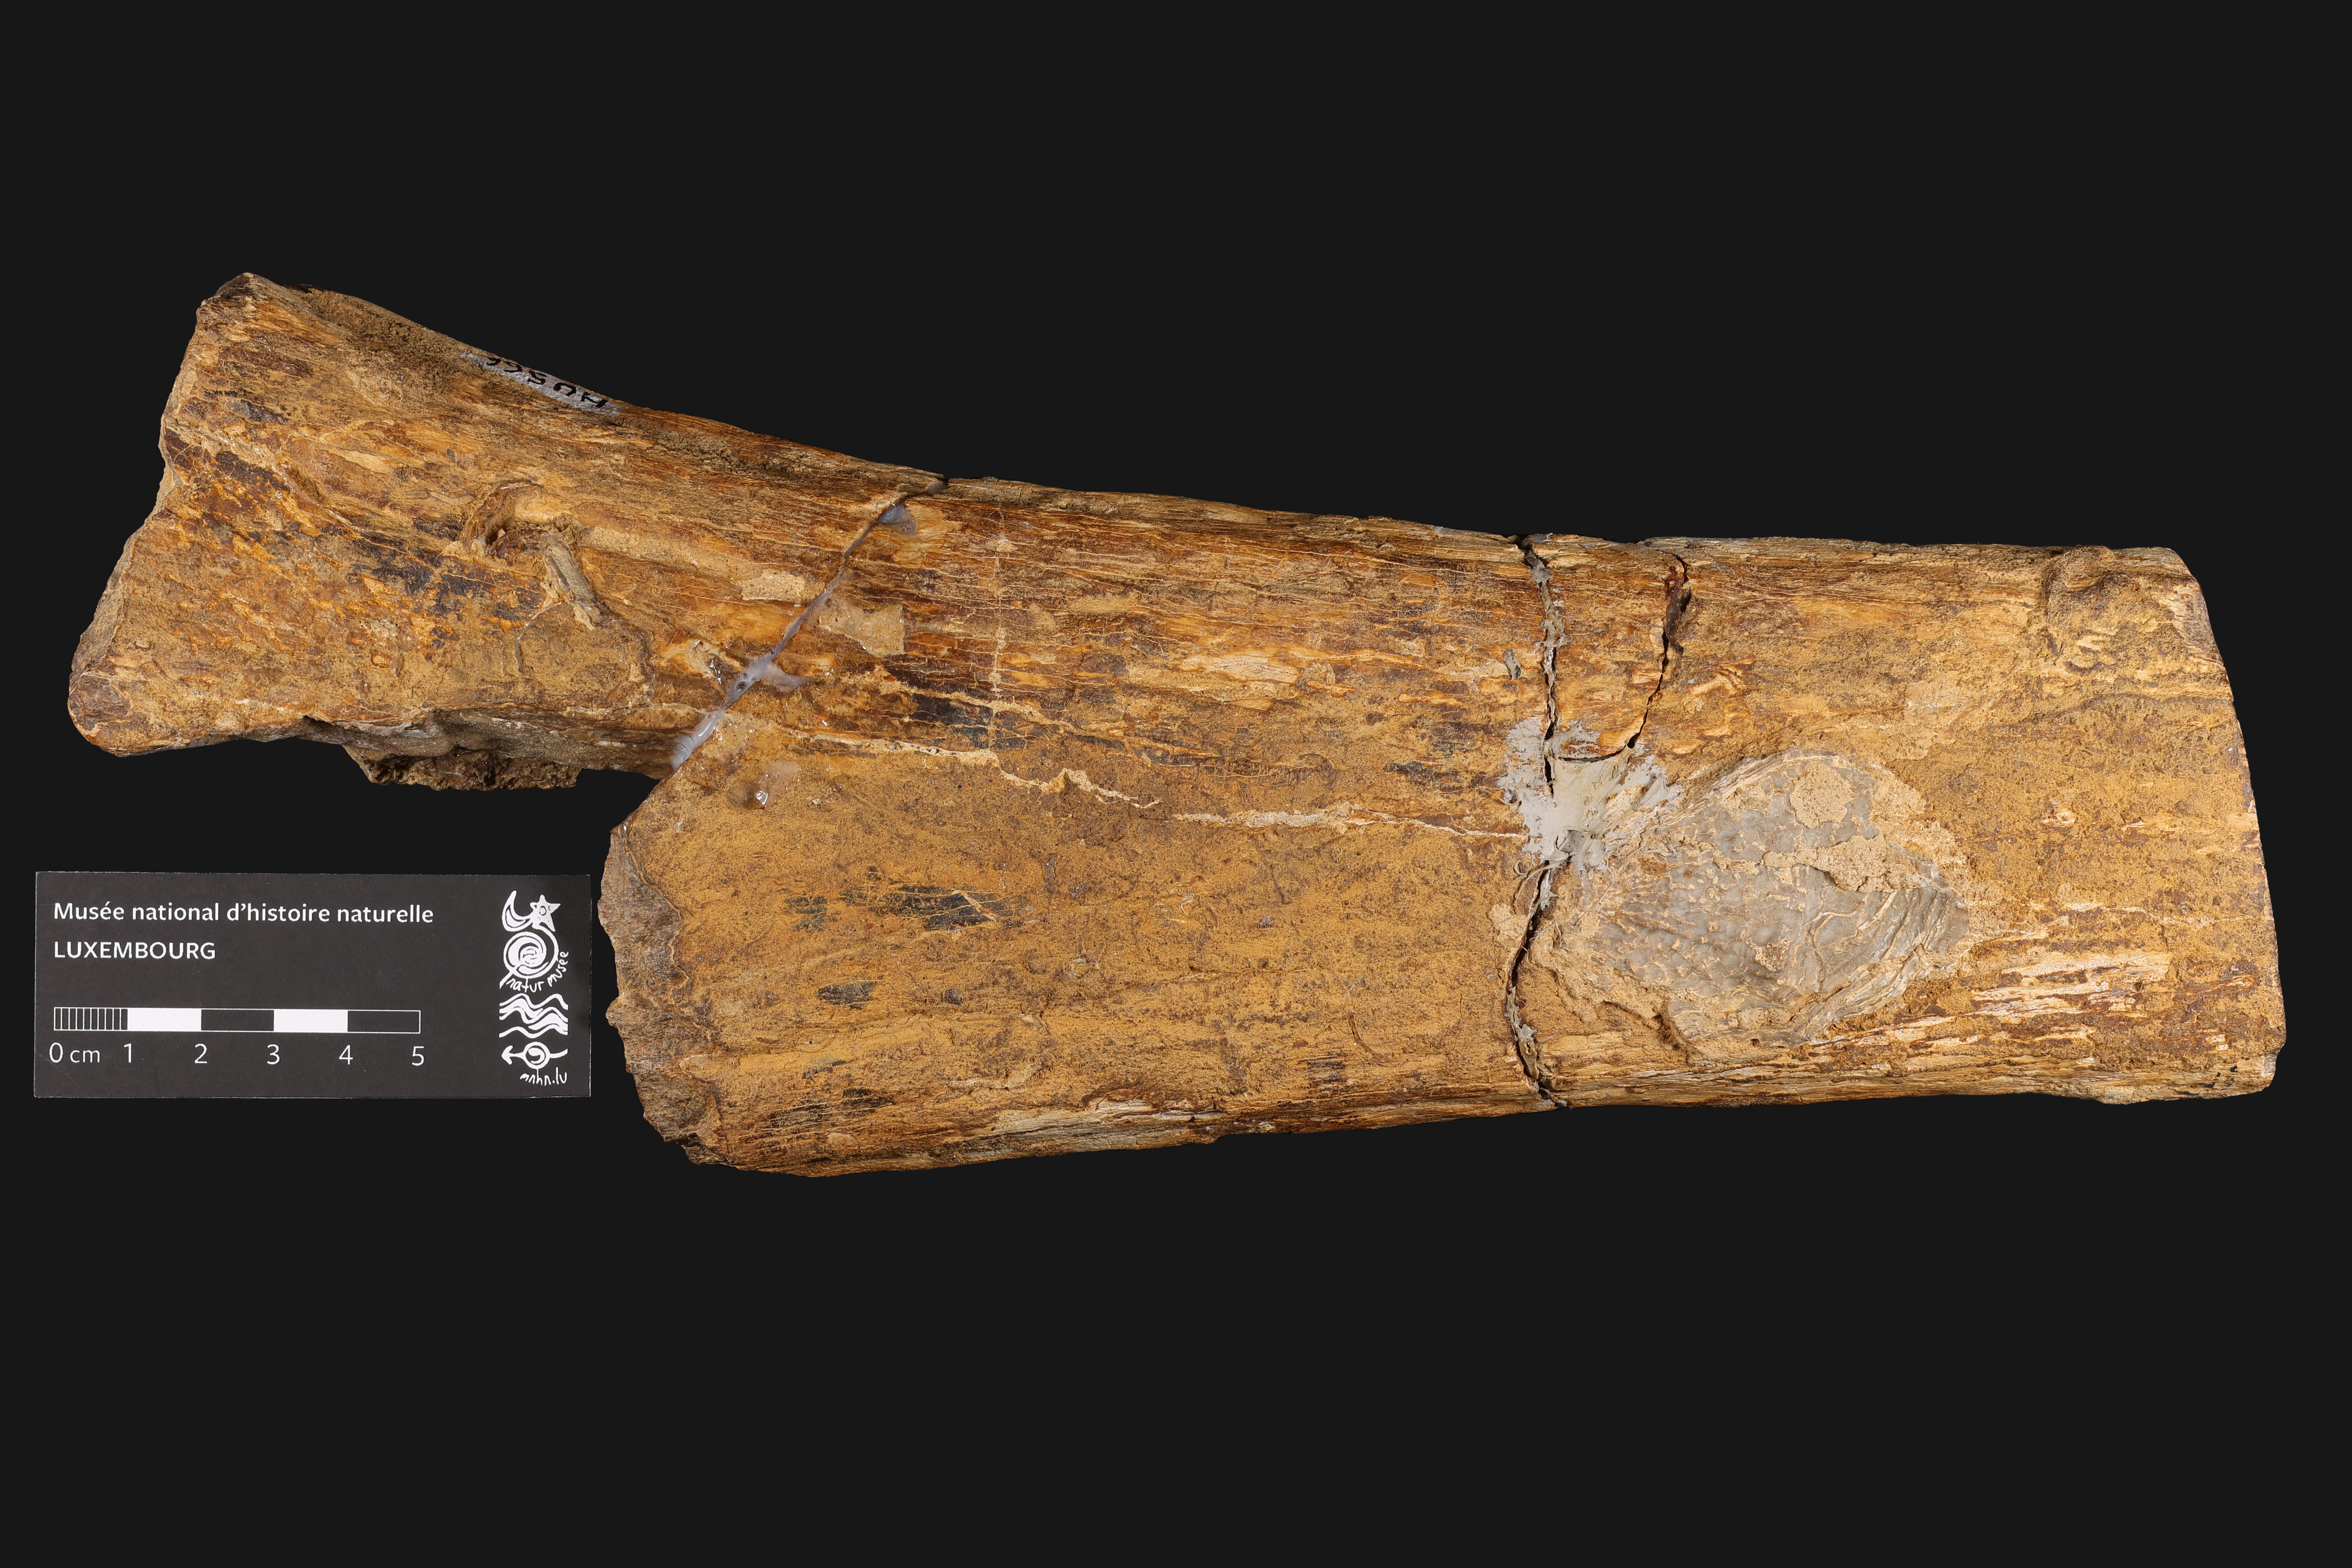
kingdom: Animalia
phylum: Chordata
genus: Thalattosuchia
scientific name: Thalattosuchia
